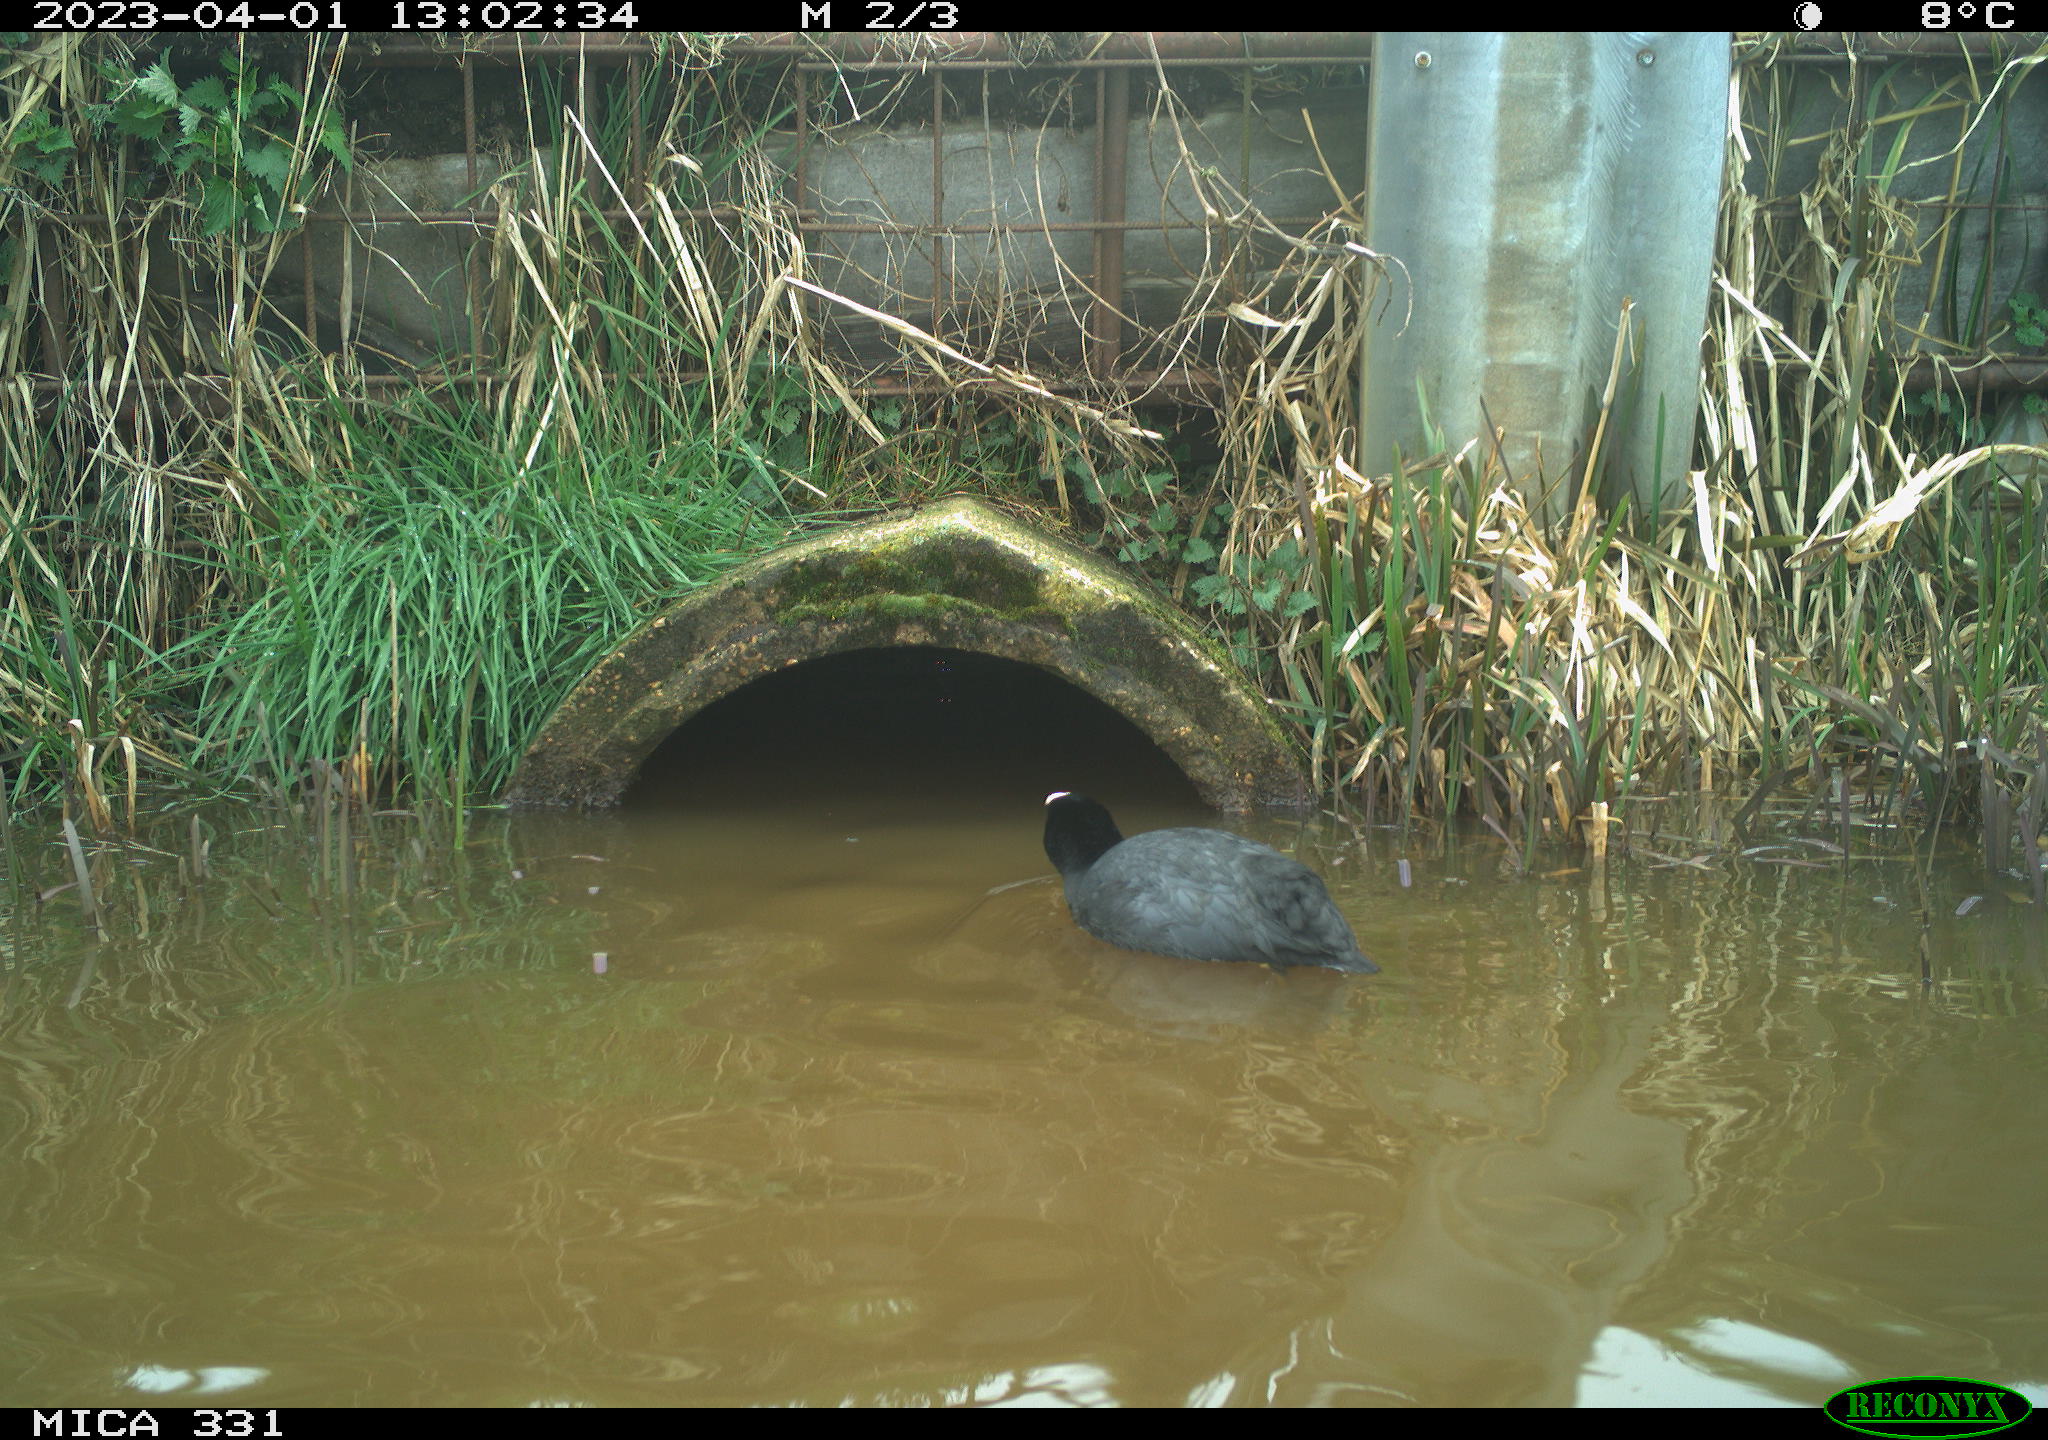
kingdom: Animalia
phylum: Chordata
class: Aves
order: Gruiformes
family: Rallidae
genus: Fulica
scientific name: Fulica atra
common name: Eurasian coot
